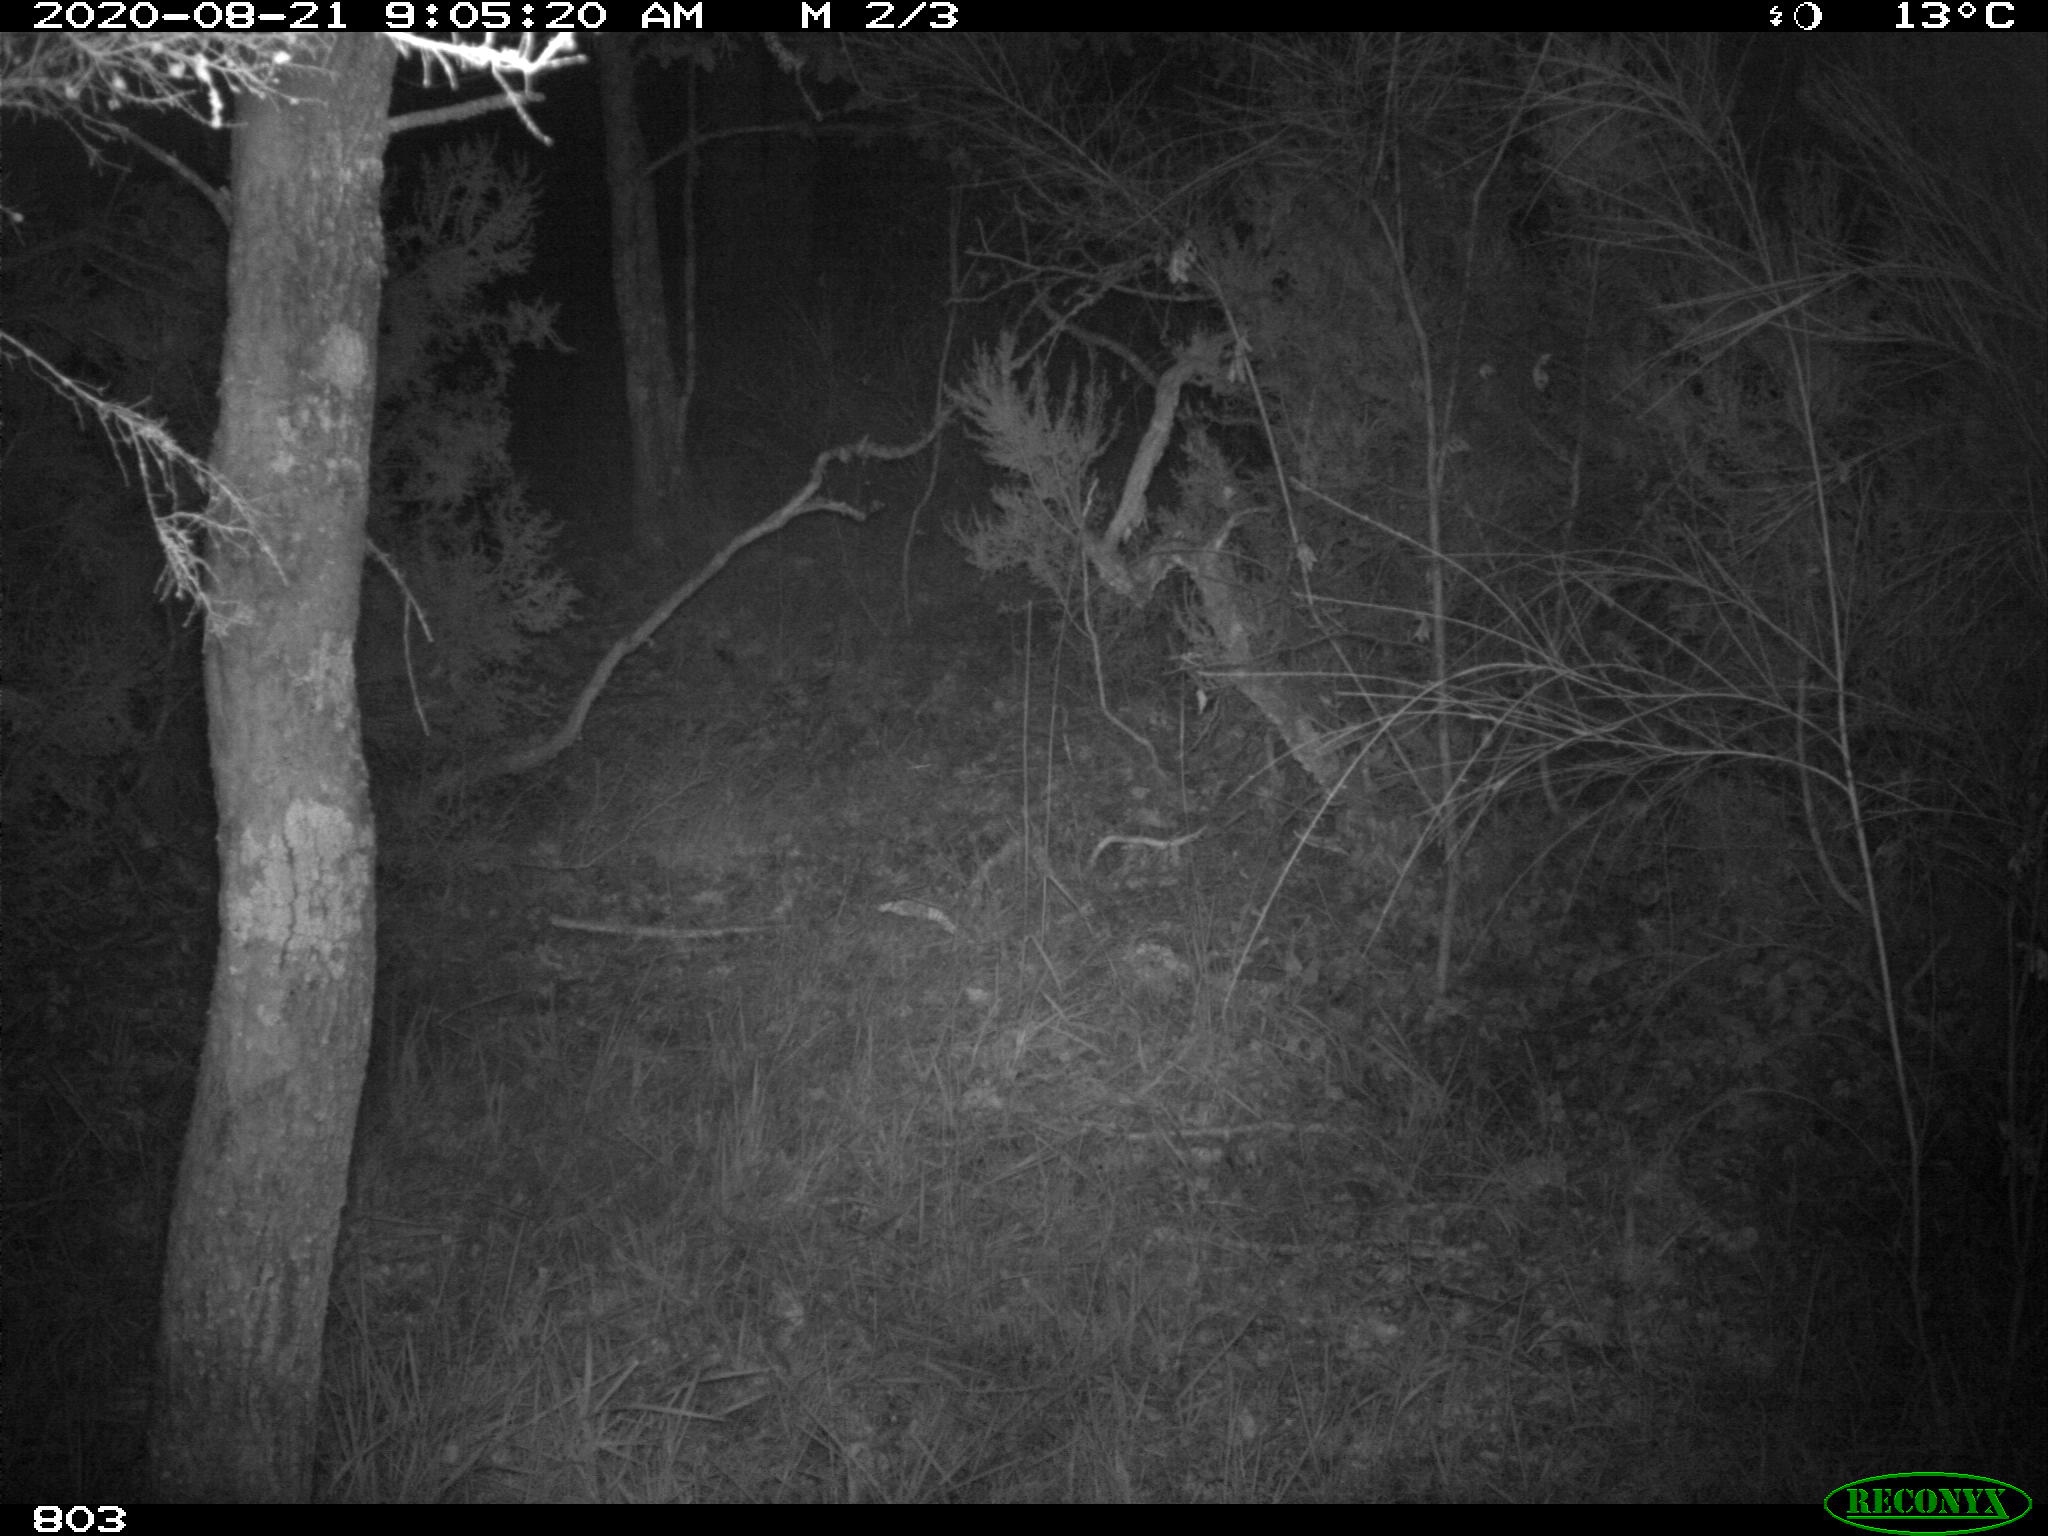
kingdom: Animalia
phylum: Chordata
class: Mammalia
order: Artiodactyla
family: Suidae
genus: Sus
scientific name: Sus scrofa
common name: Wild boar
